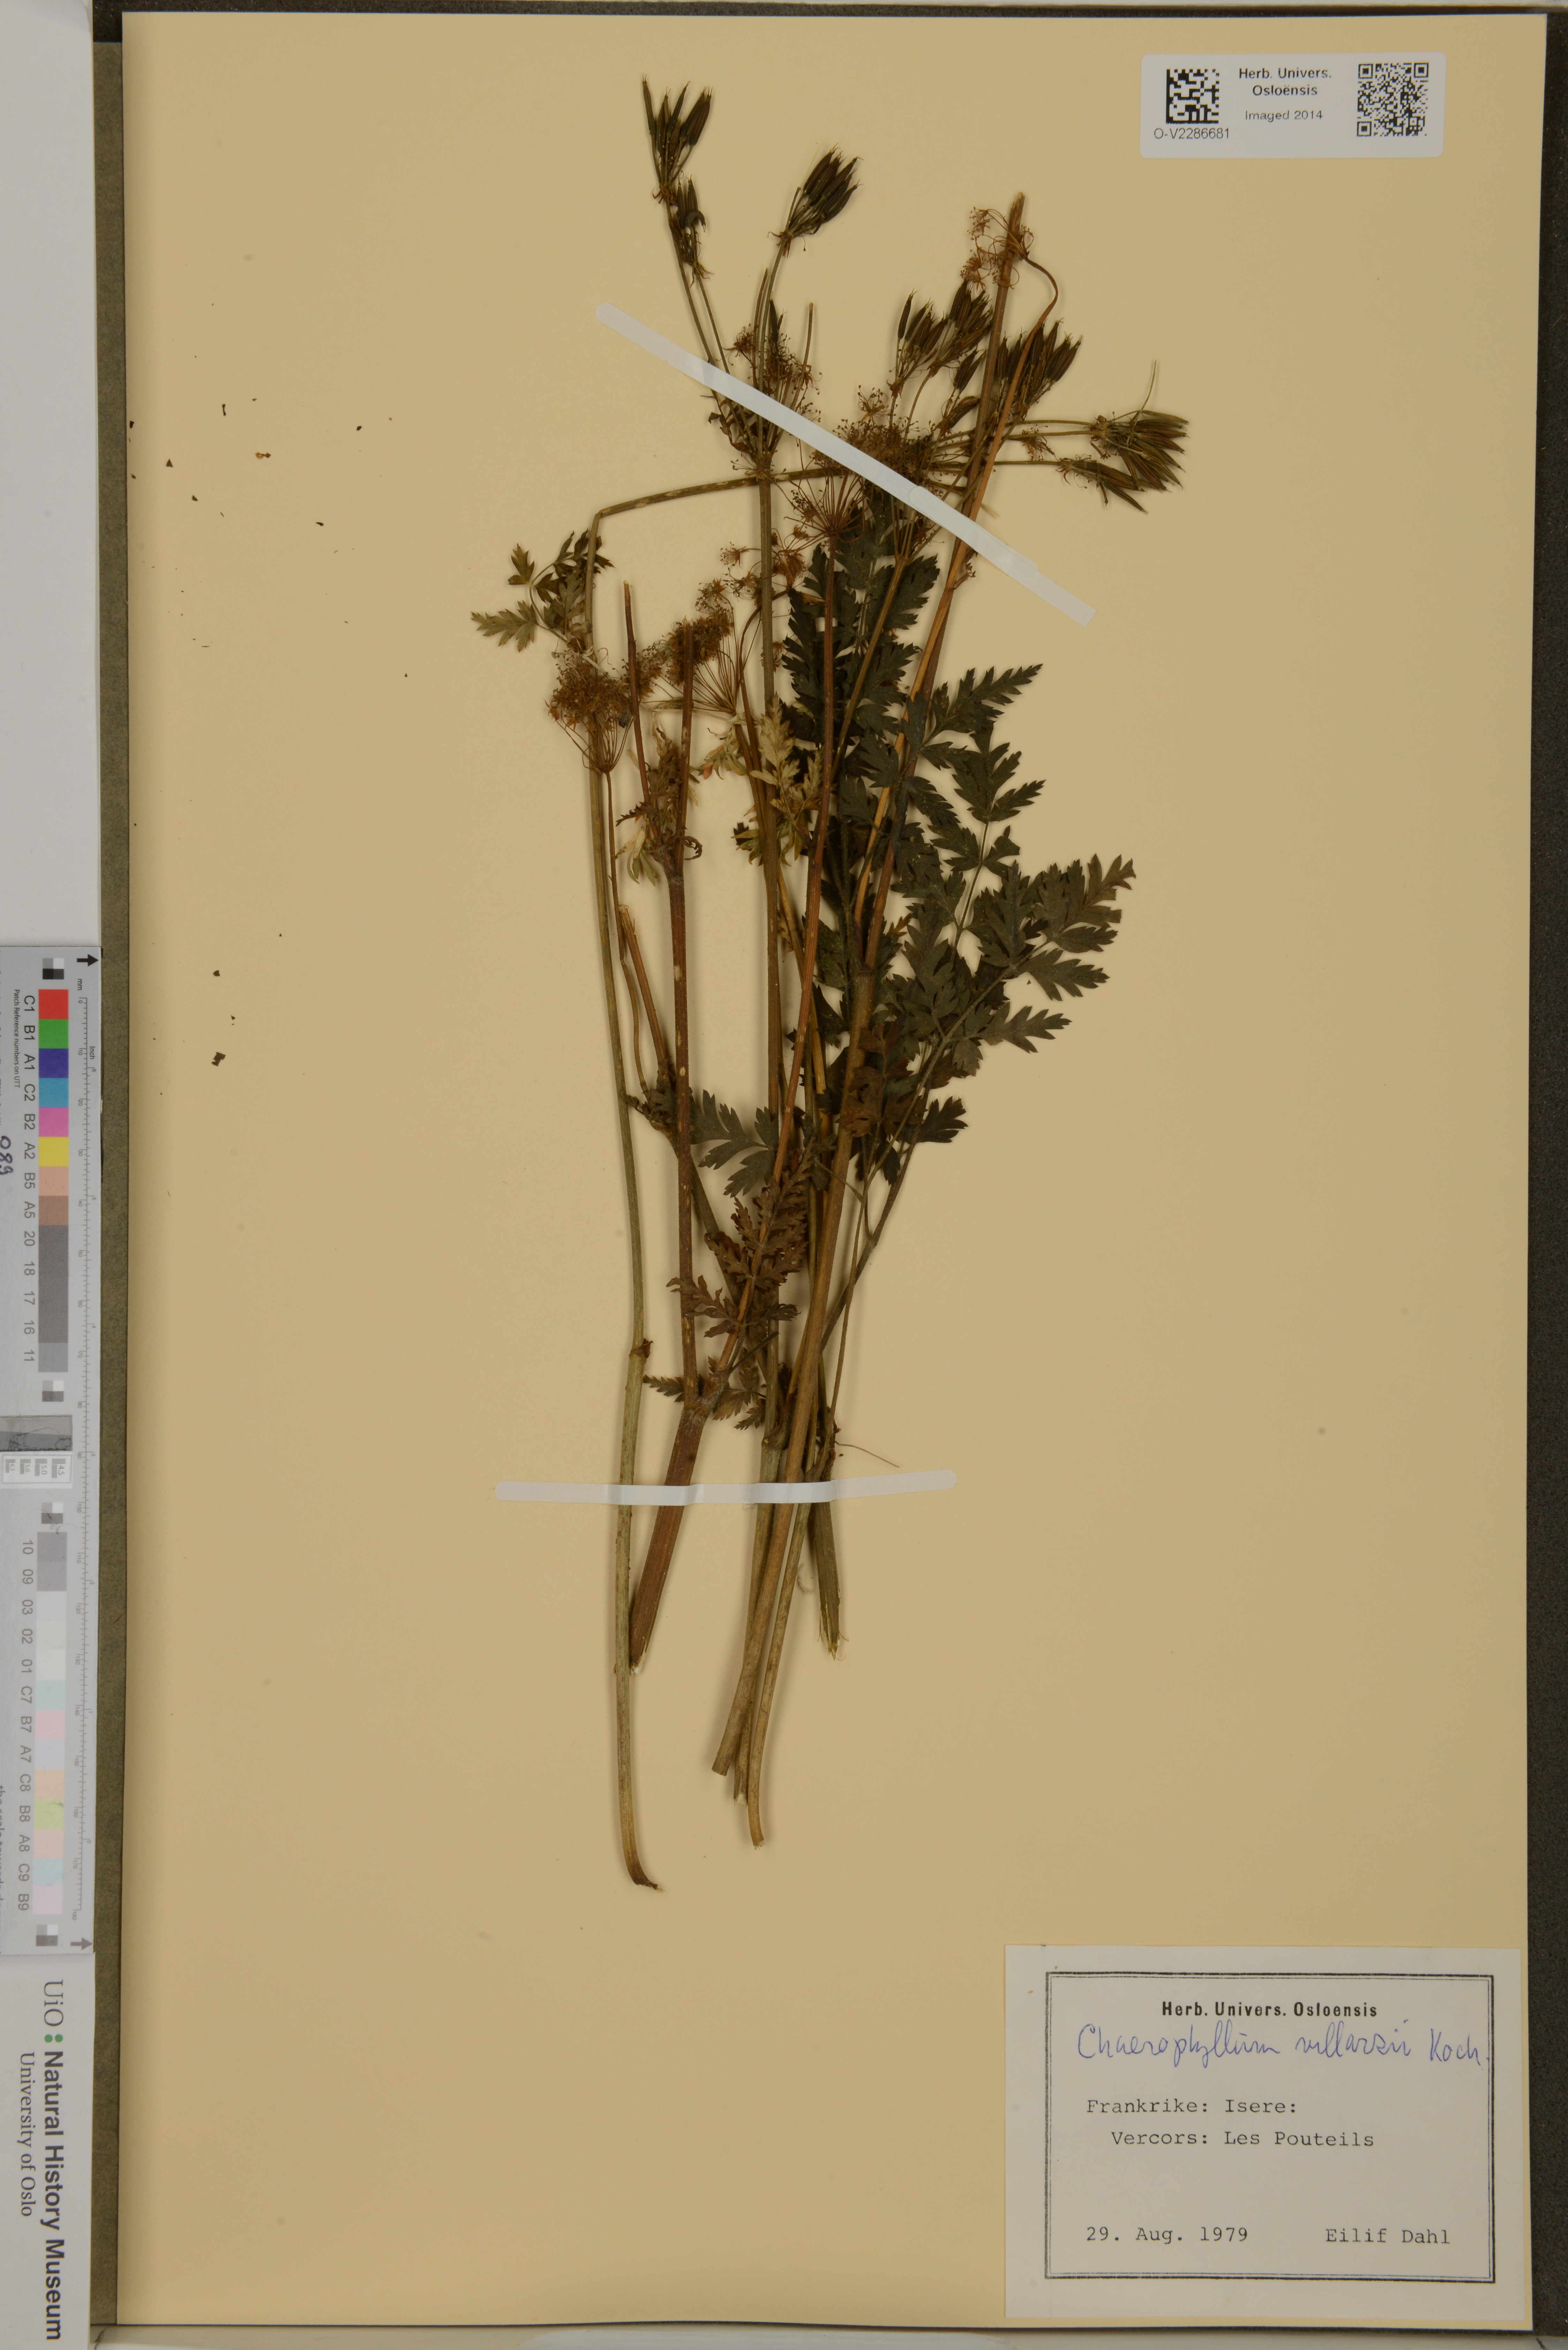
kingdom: Plantae
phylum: Tracheophyta
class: Magnoliopsida
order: Apiales
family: Apiaceae
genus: Chaerophyllum
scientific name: Chaerophyllum villarsii
